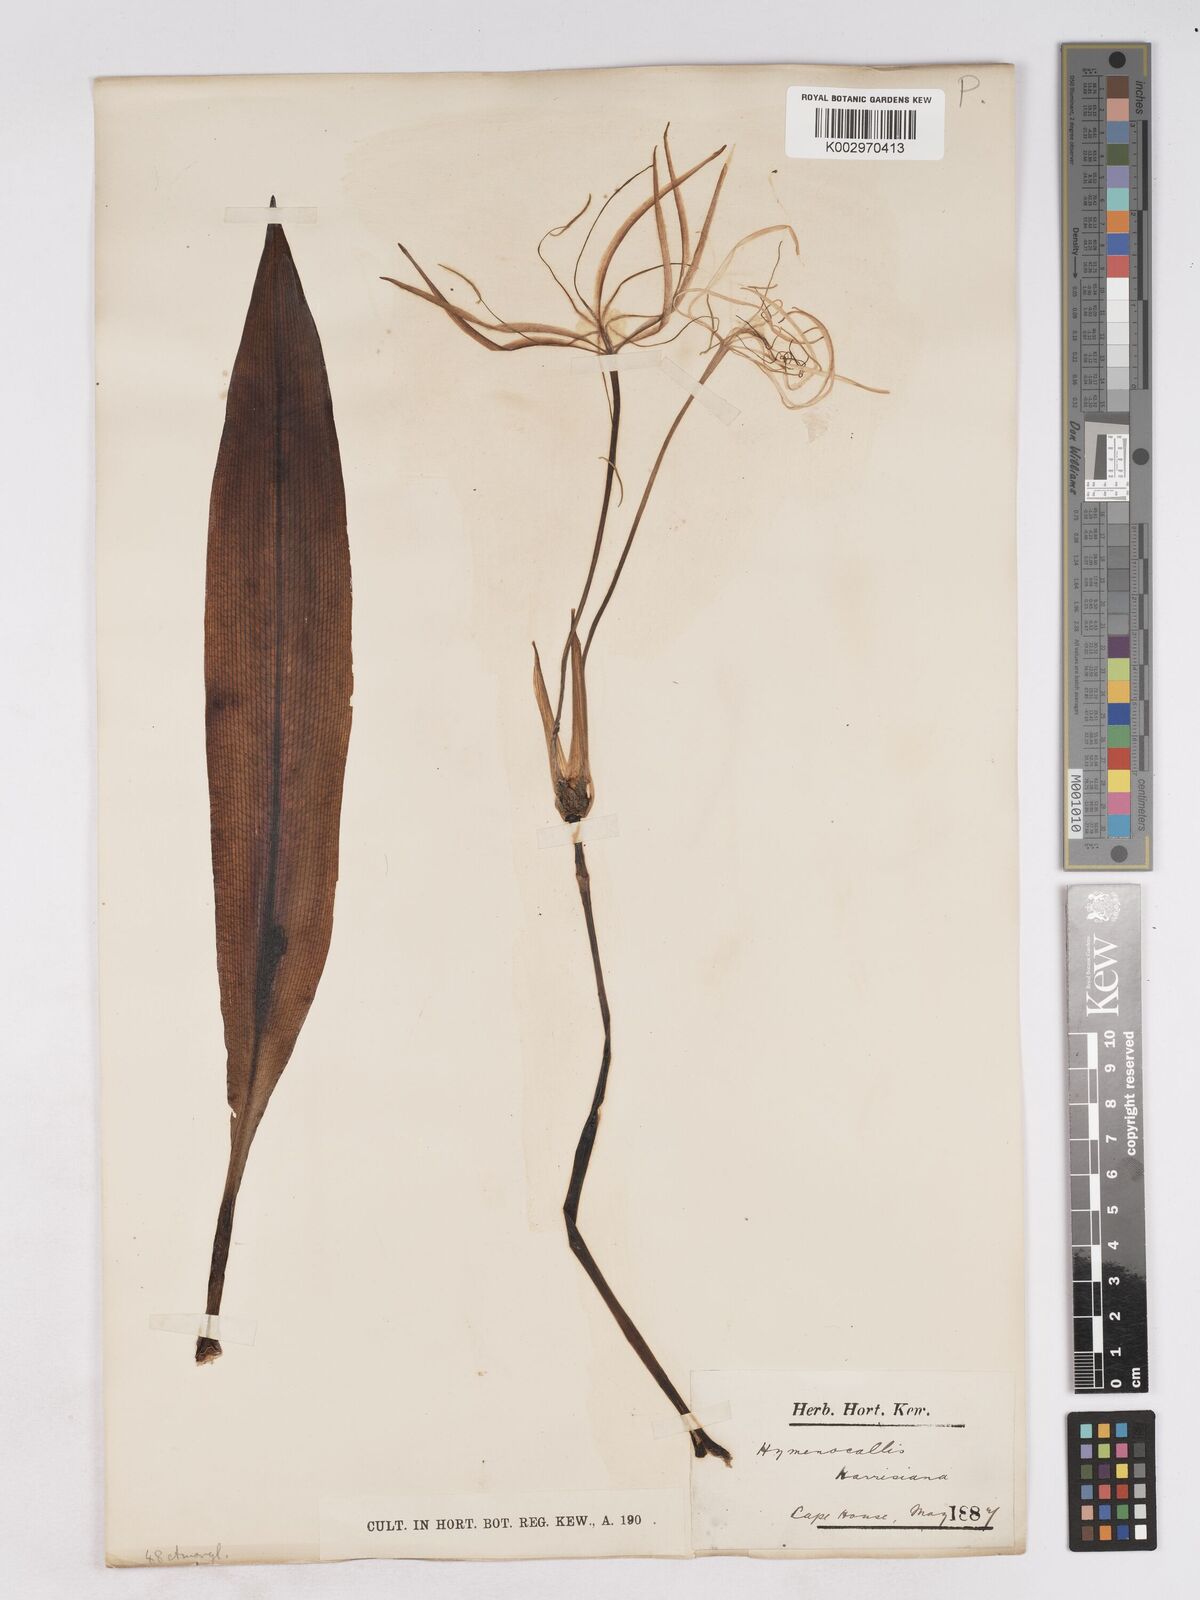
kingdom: Plantae
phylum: Tracheophyta
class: Liliopsida
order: Asparagales
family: Amaryllidaceae
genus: Hymenocallis
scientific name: Hymenocallis harrisiana
